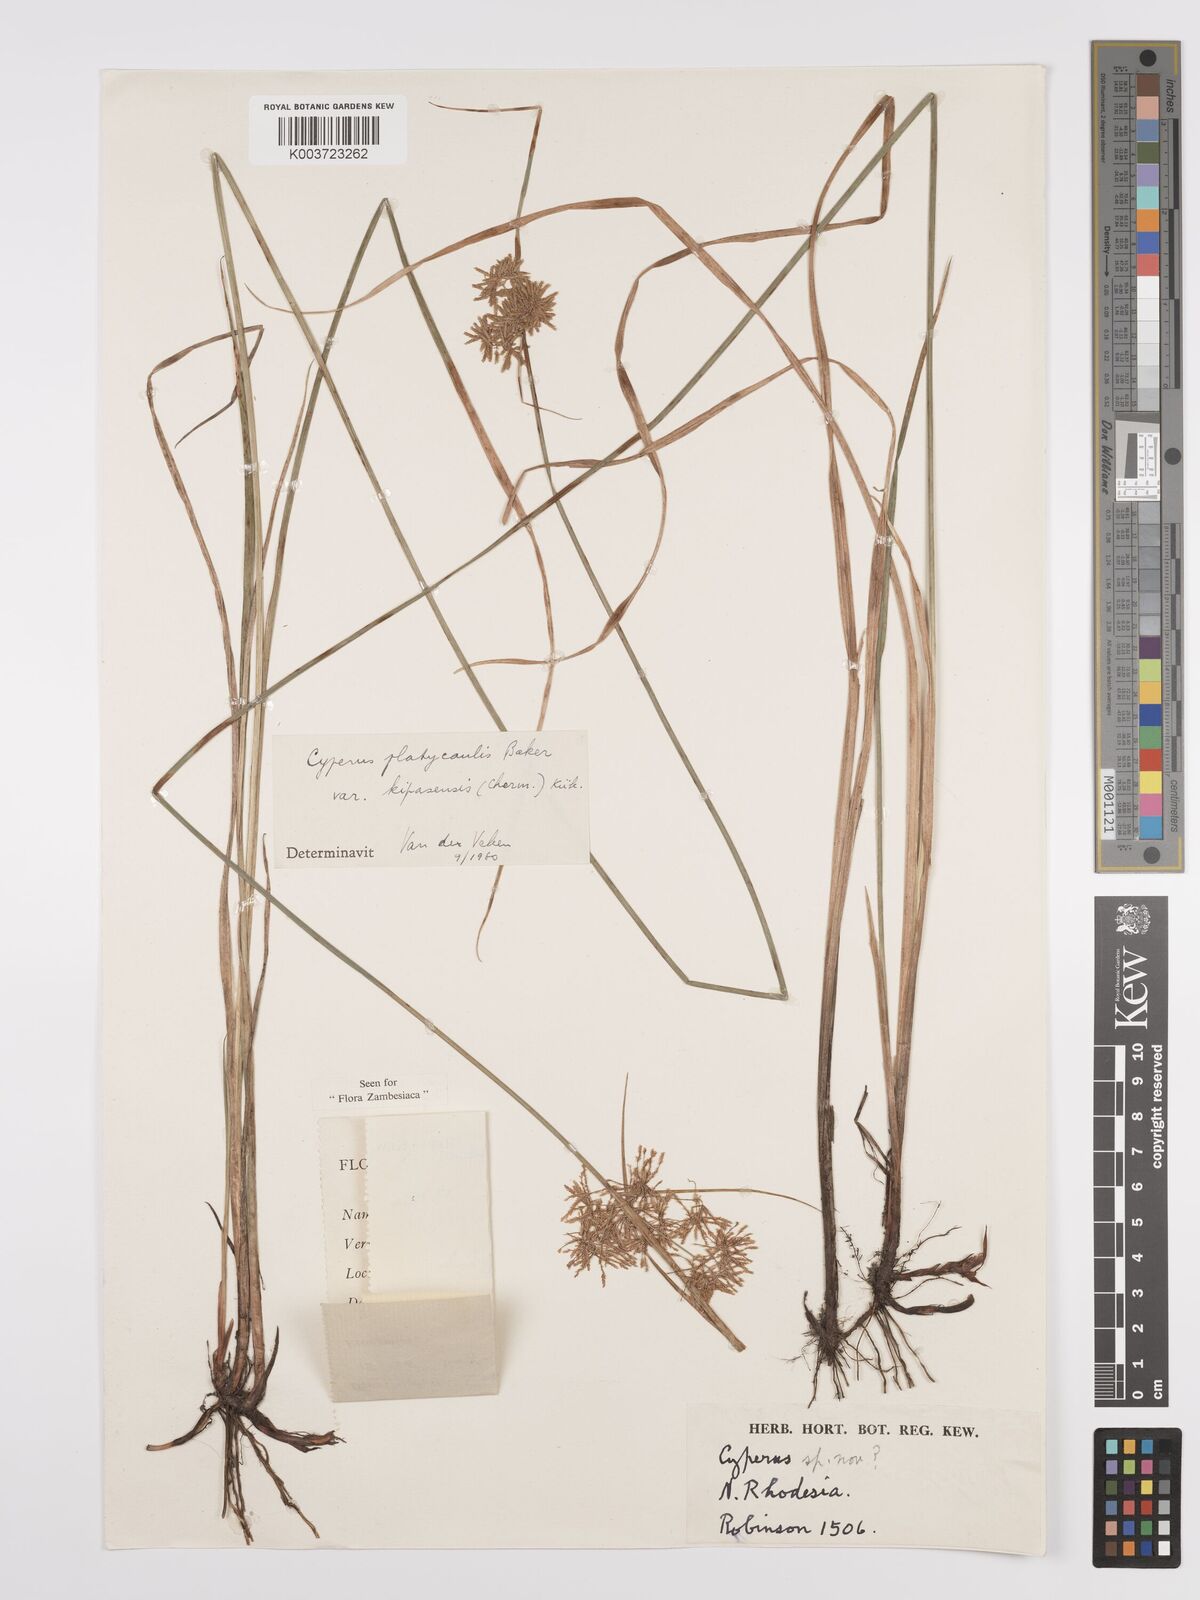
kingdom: Plantae
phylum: Tracheophyta
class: Liliopsida
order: Poales
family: Cyperaceae
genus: Cyperus
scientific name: Cyperus kipasensis
